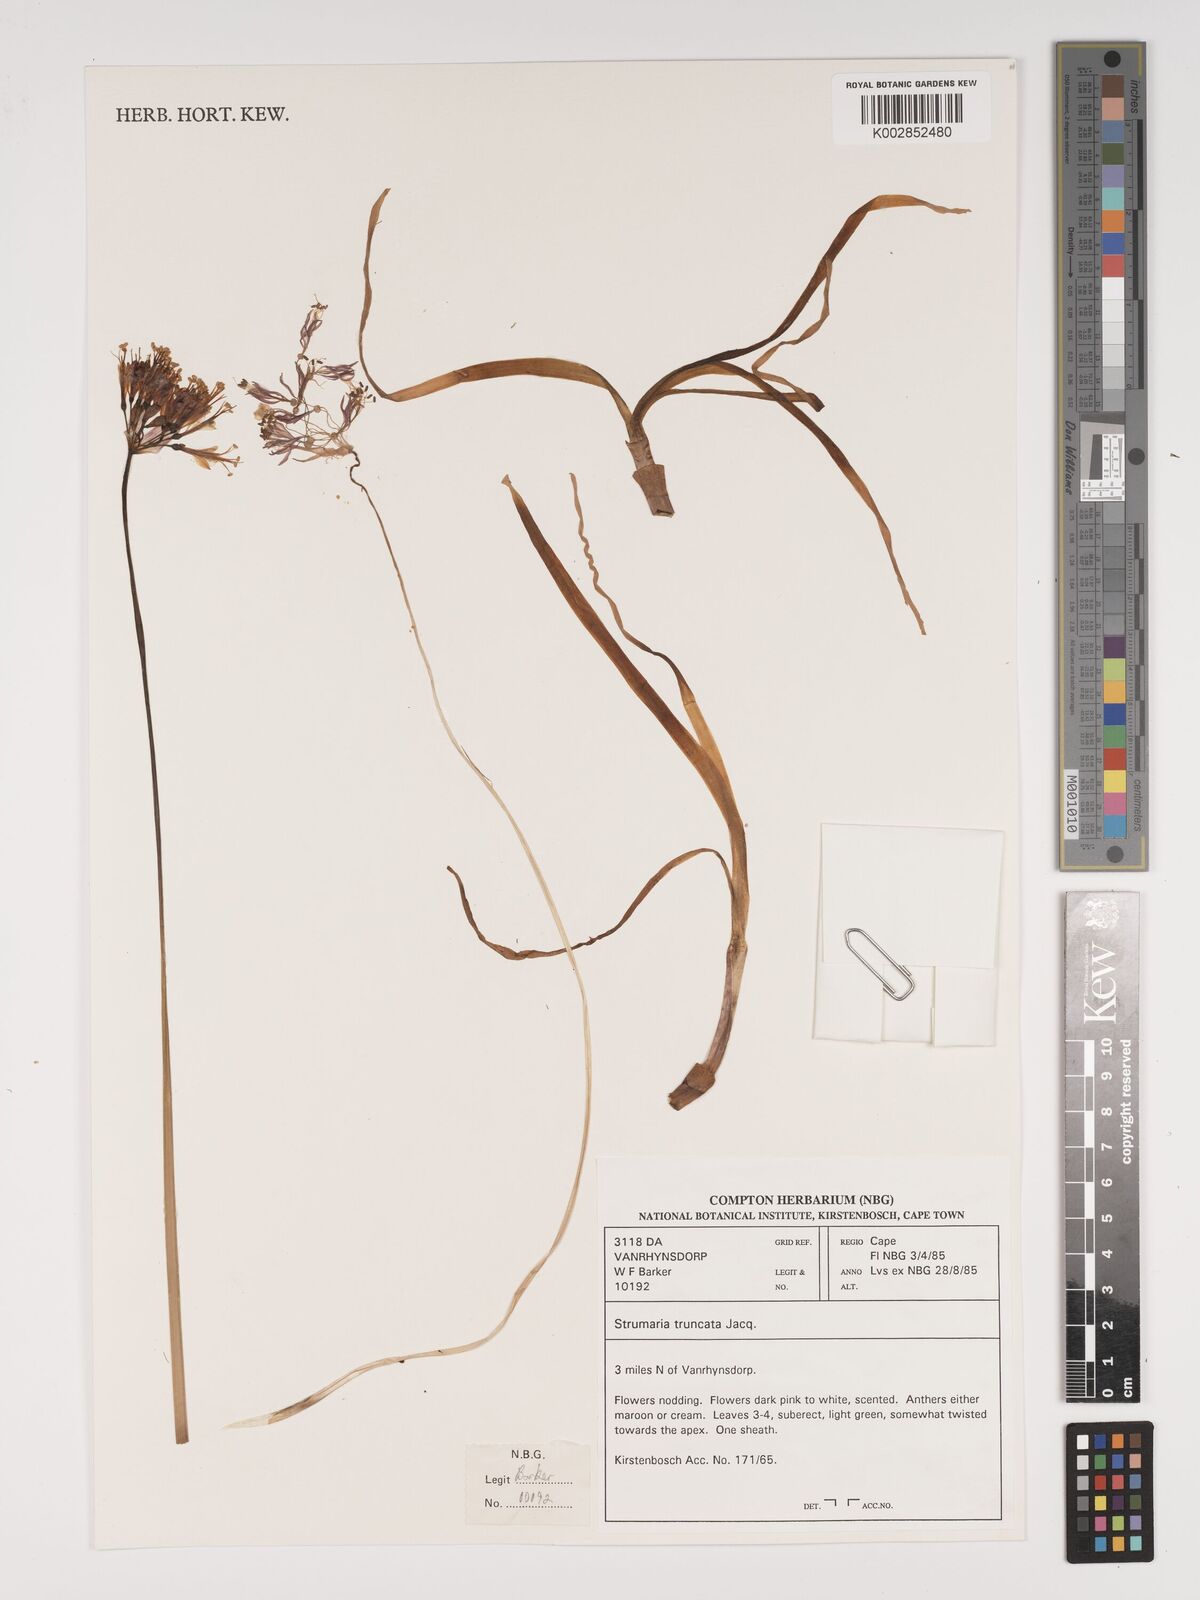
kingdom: Plantae
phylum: Tracheophyta
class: Liliopsida
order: Asparagales
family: Amaryllidaceae
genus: Strumaria
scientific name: Strumaria truncata
